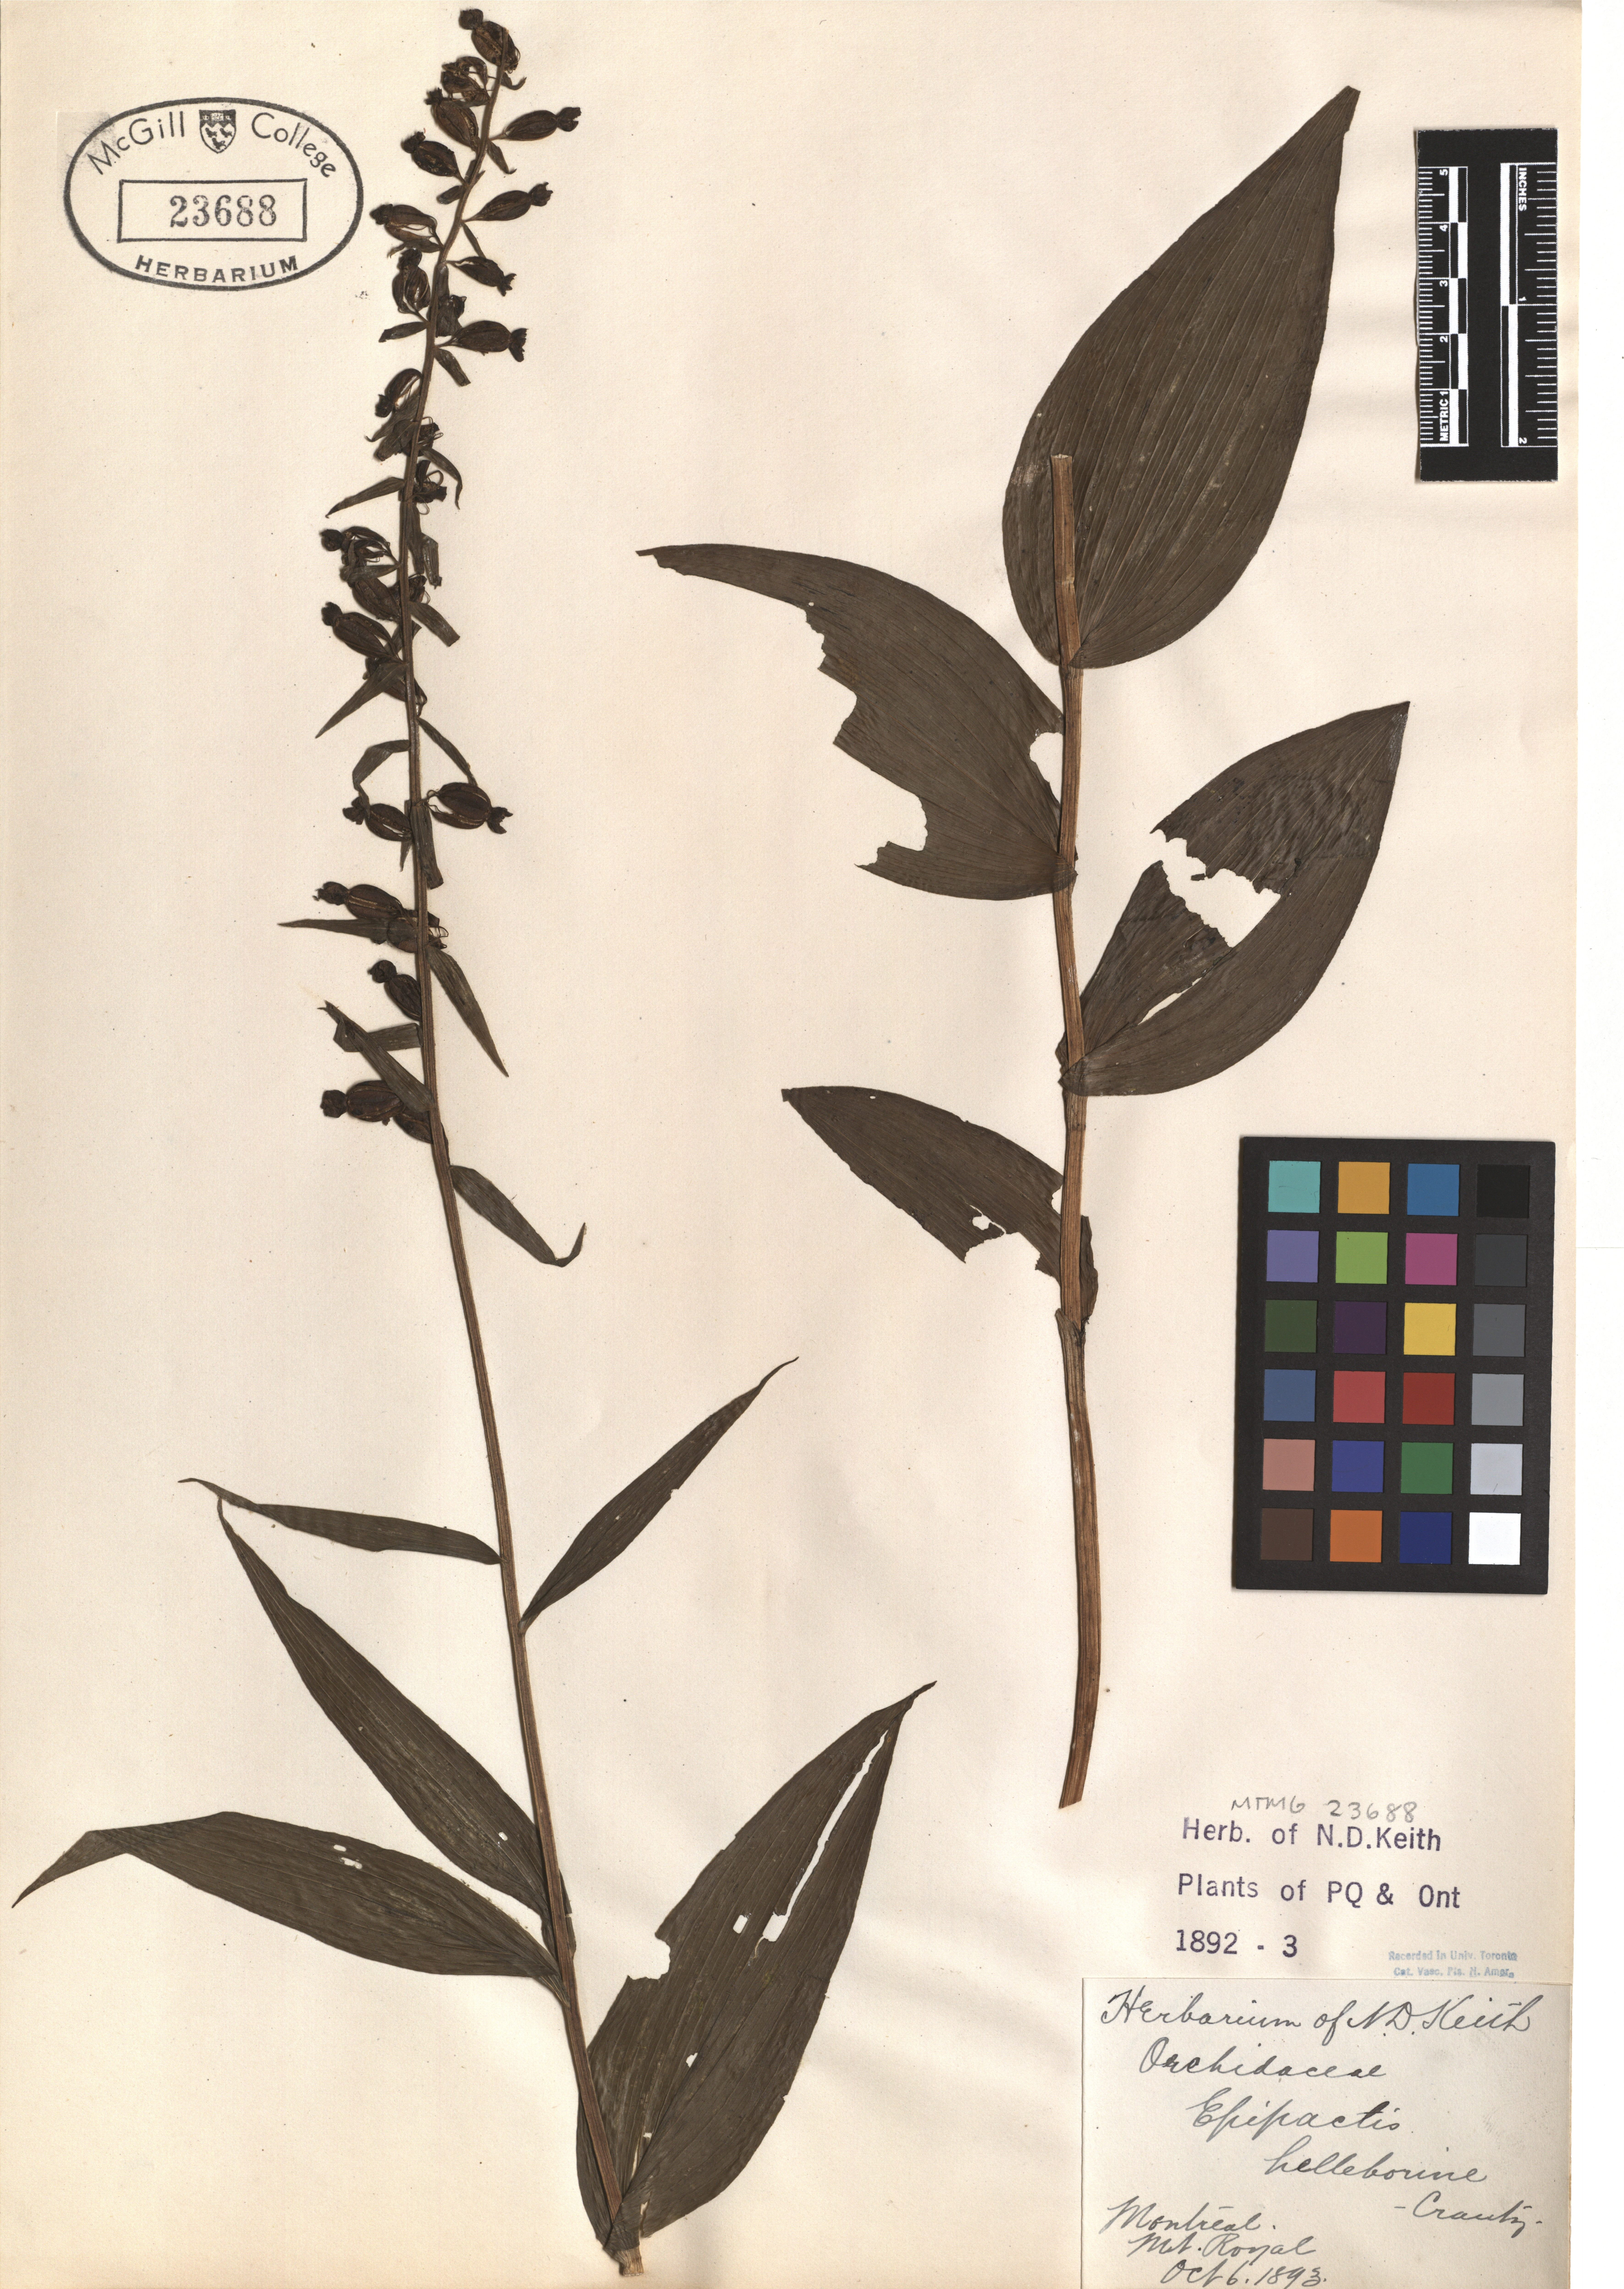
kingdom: Plantae
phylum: Tracheophyta
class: Liliopsida
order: Asparagales
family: Orchidaceae
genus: Epipactis
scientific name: Epipactis helleborine
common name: Broad-leaved helleborine
